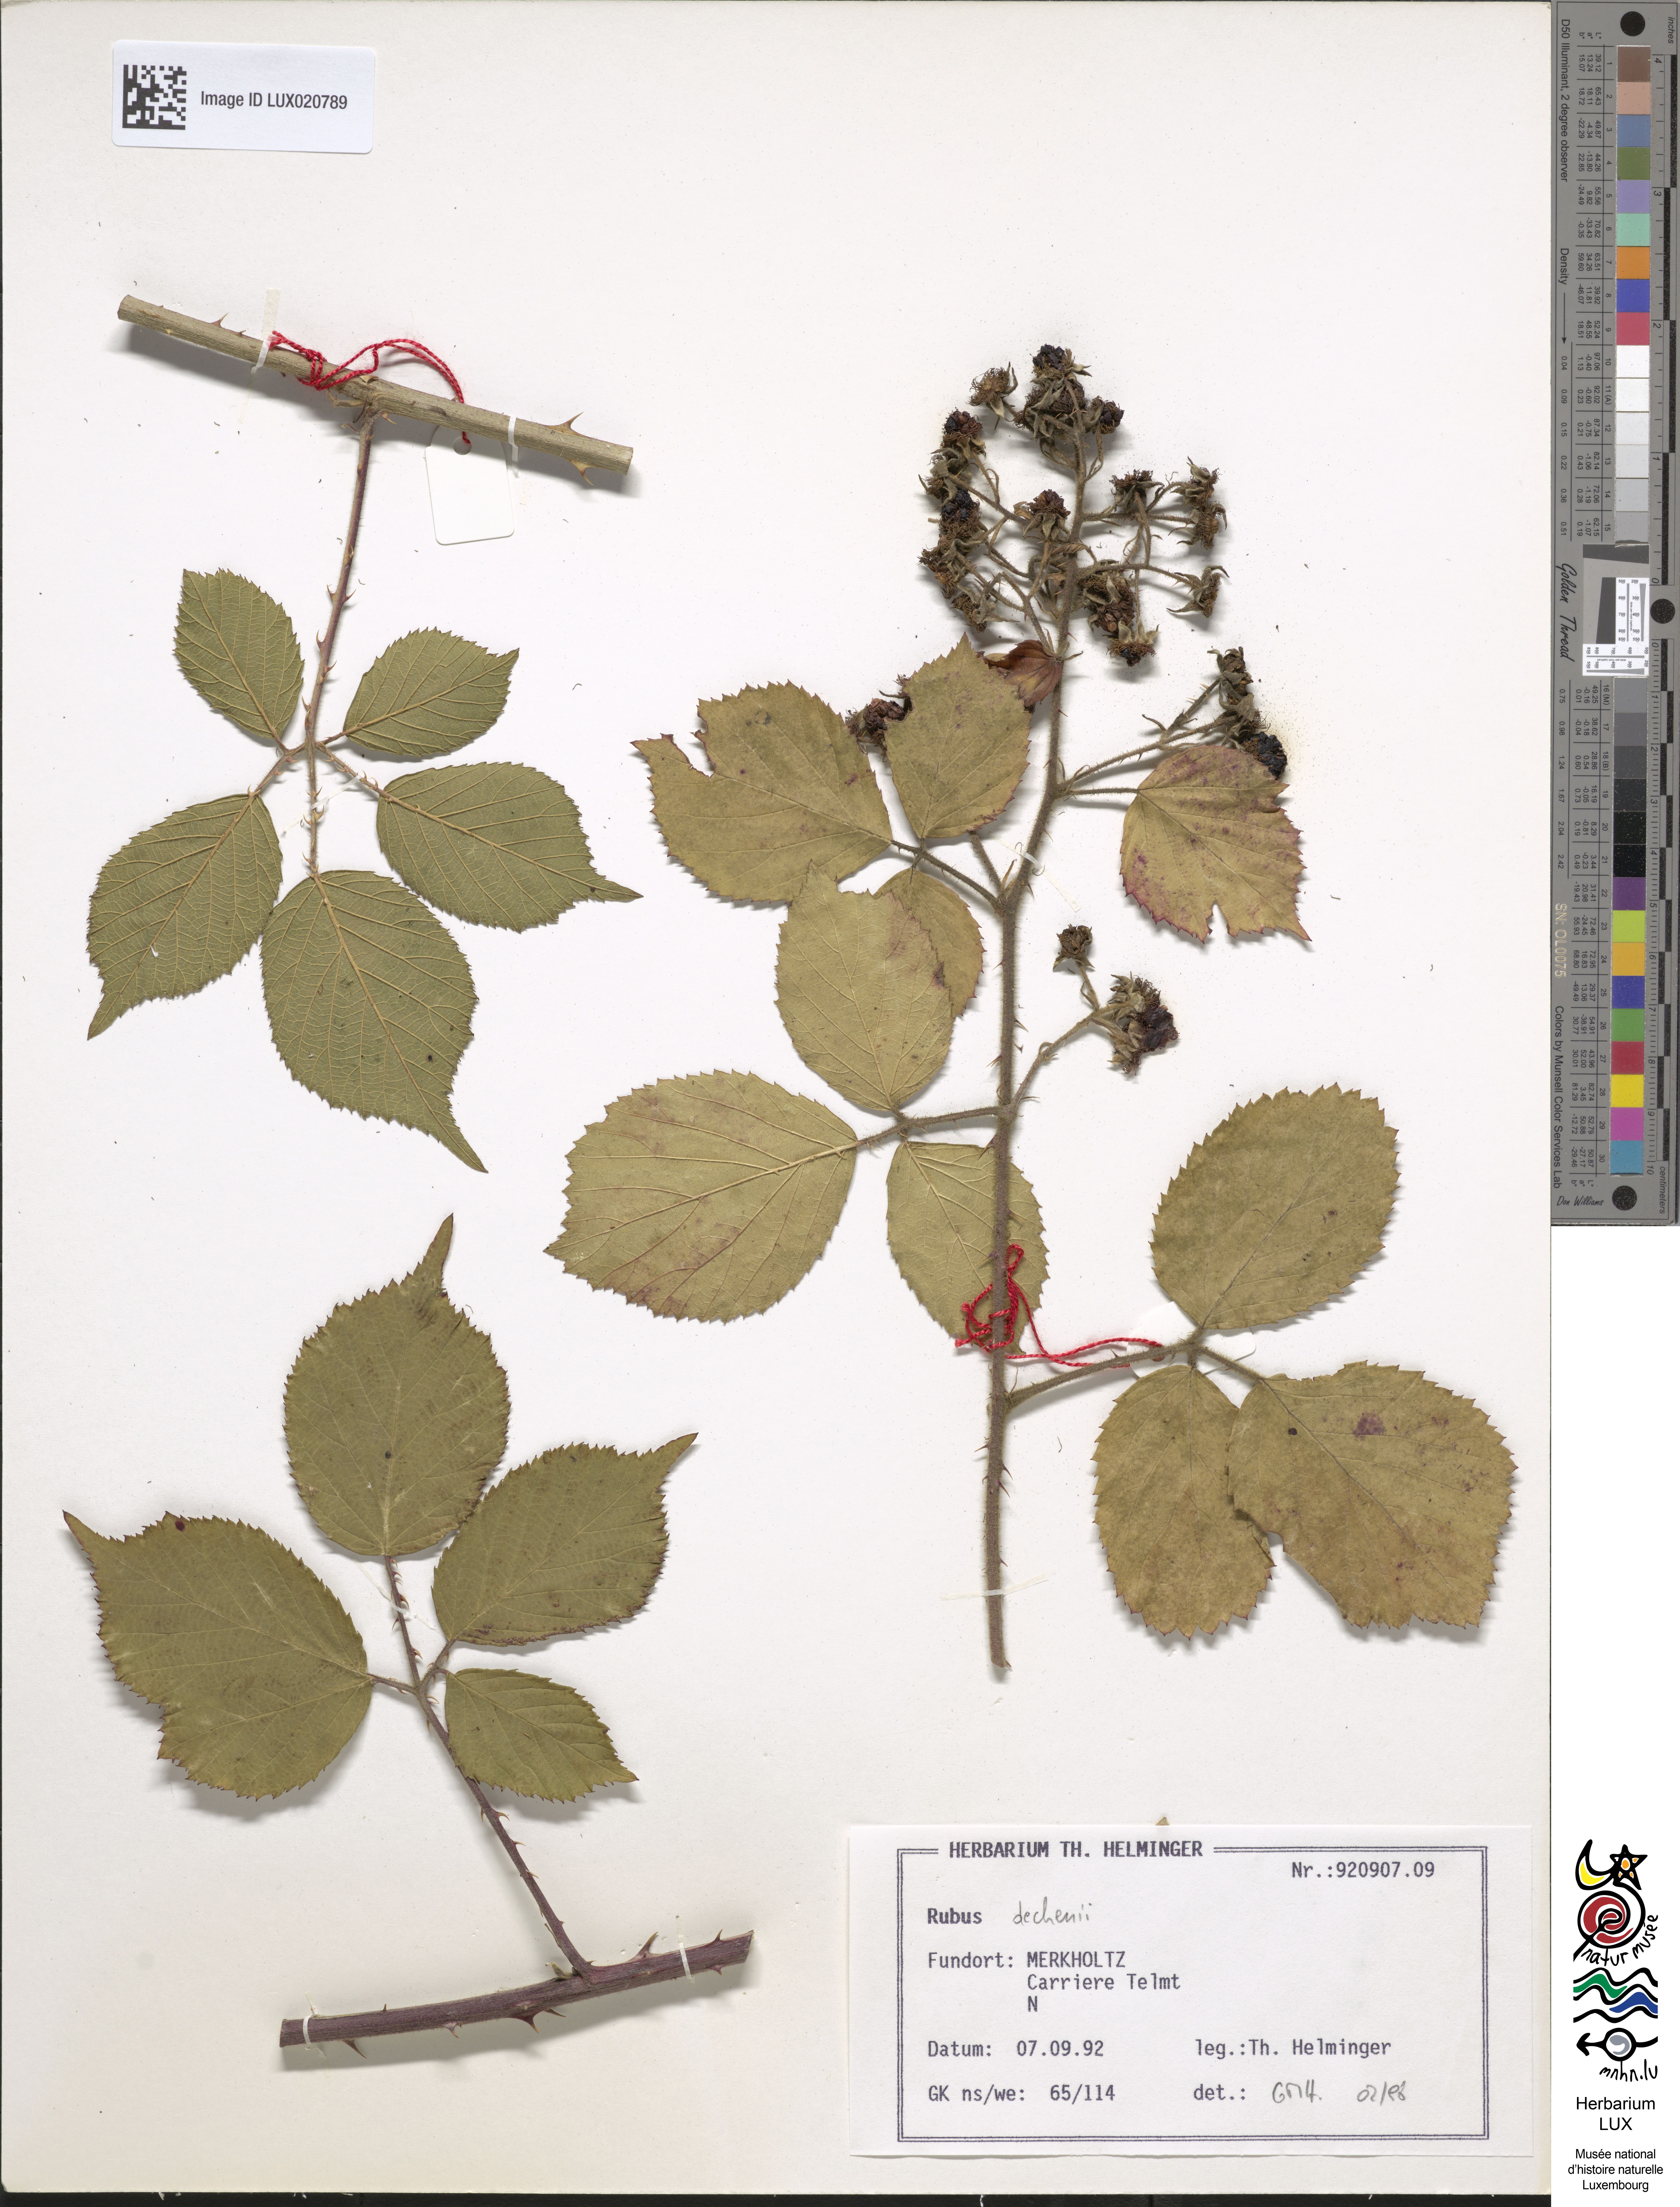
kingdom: Plantae
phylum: Tracheophyta
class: Magnoliopsida
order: Rosales
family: Rosaceae
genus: Rubus
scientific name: Rubus dechenii
